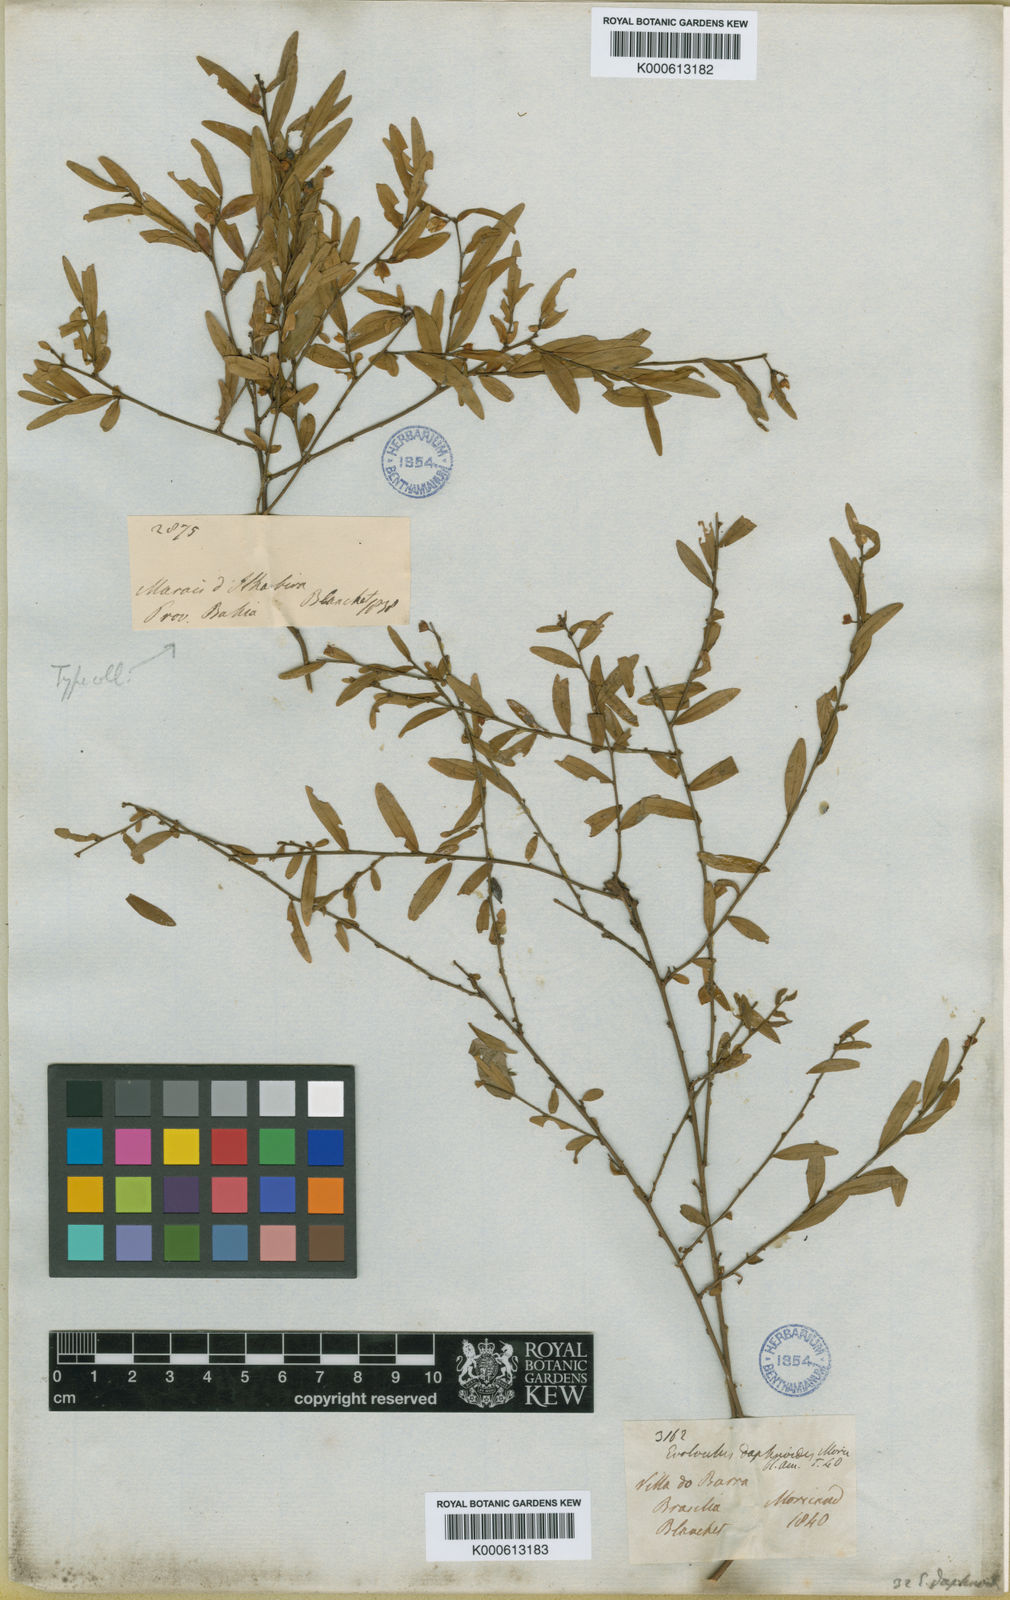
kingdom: Plantae
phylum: Tracheophyta
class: Magnoliopsida
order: Solanales
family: Convolvulaceae
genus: Evolvulus
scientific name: Evolvulus daphnoides
